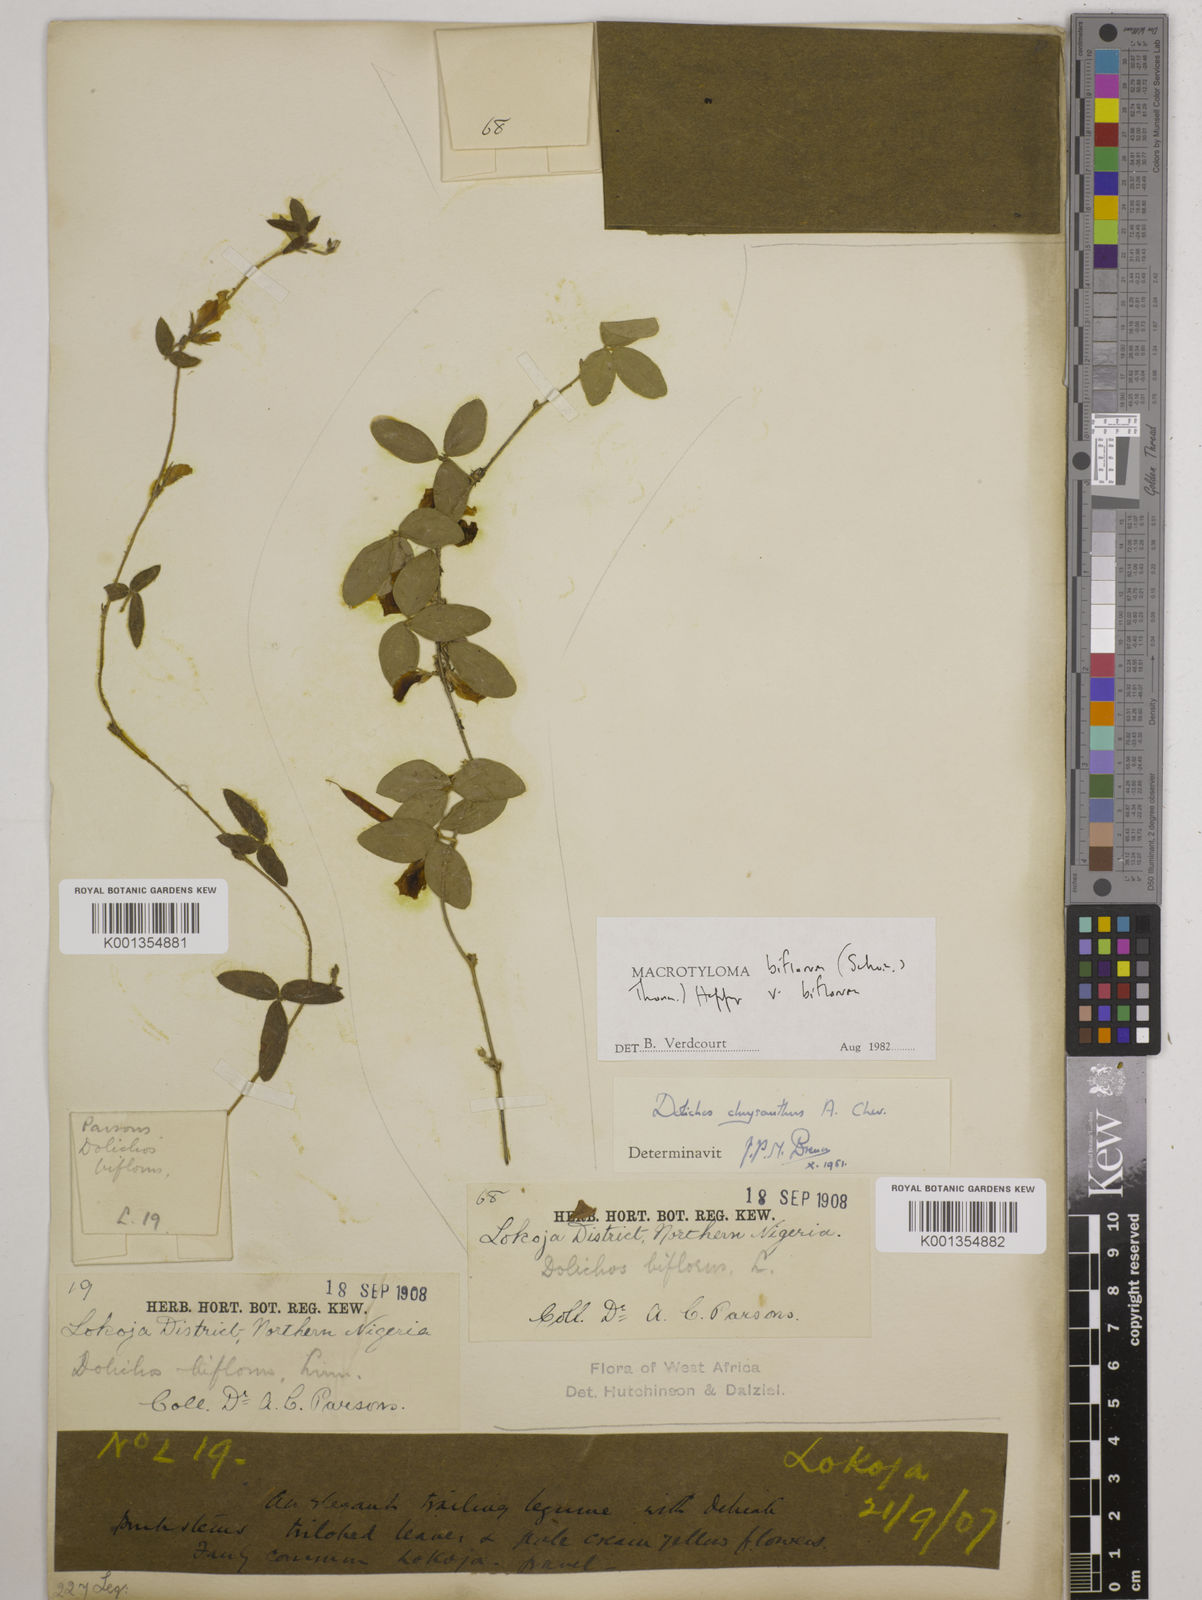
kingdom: Plantae
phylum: Tracheophyta
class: Magnoliopsida
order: Fabales
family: Fabaceae
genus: Macrotyloma
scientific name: Macrotyloma biflorum
